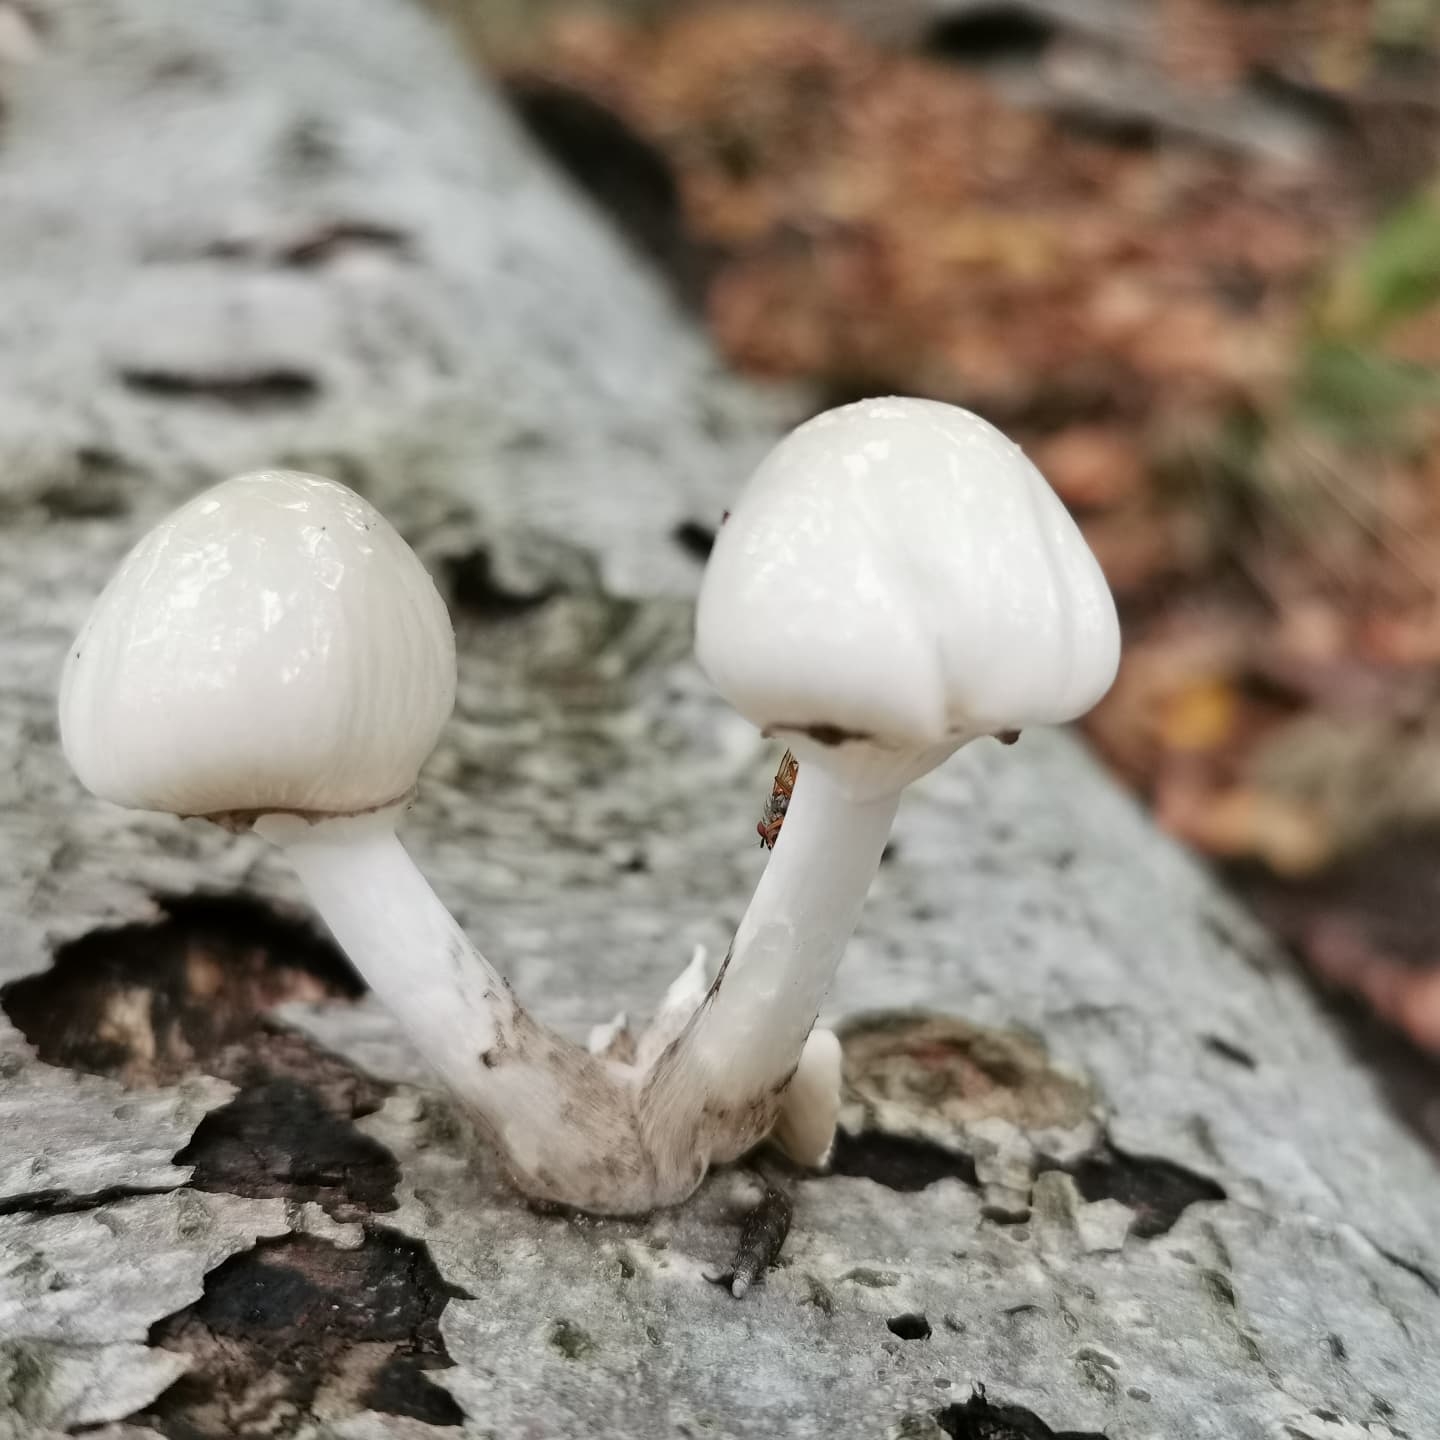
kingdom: Fungi
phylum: Basidiomycota
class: Agaricomycetes
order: Agaricales
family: Physalacriaceae
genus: Mucidula
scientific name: Mucidula mucida
